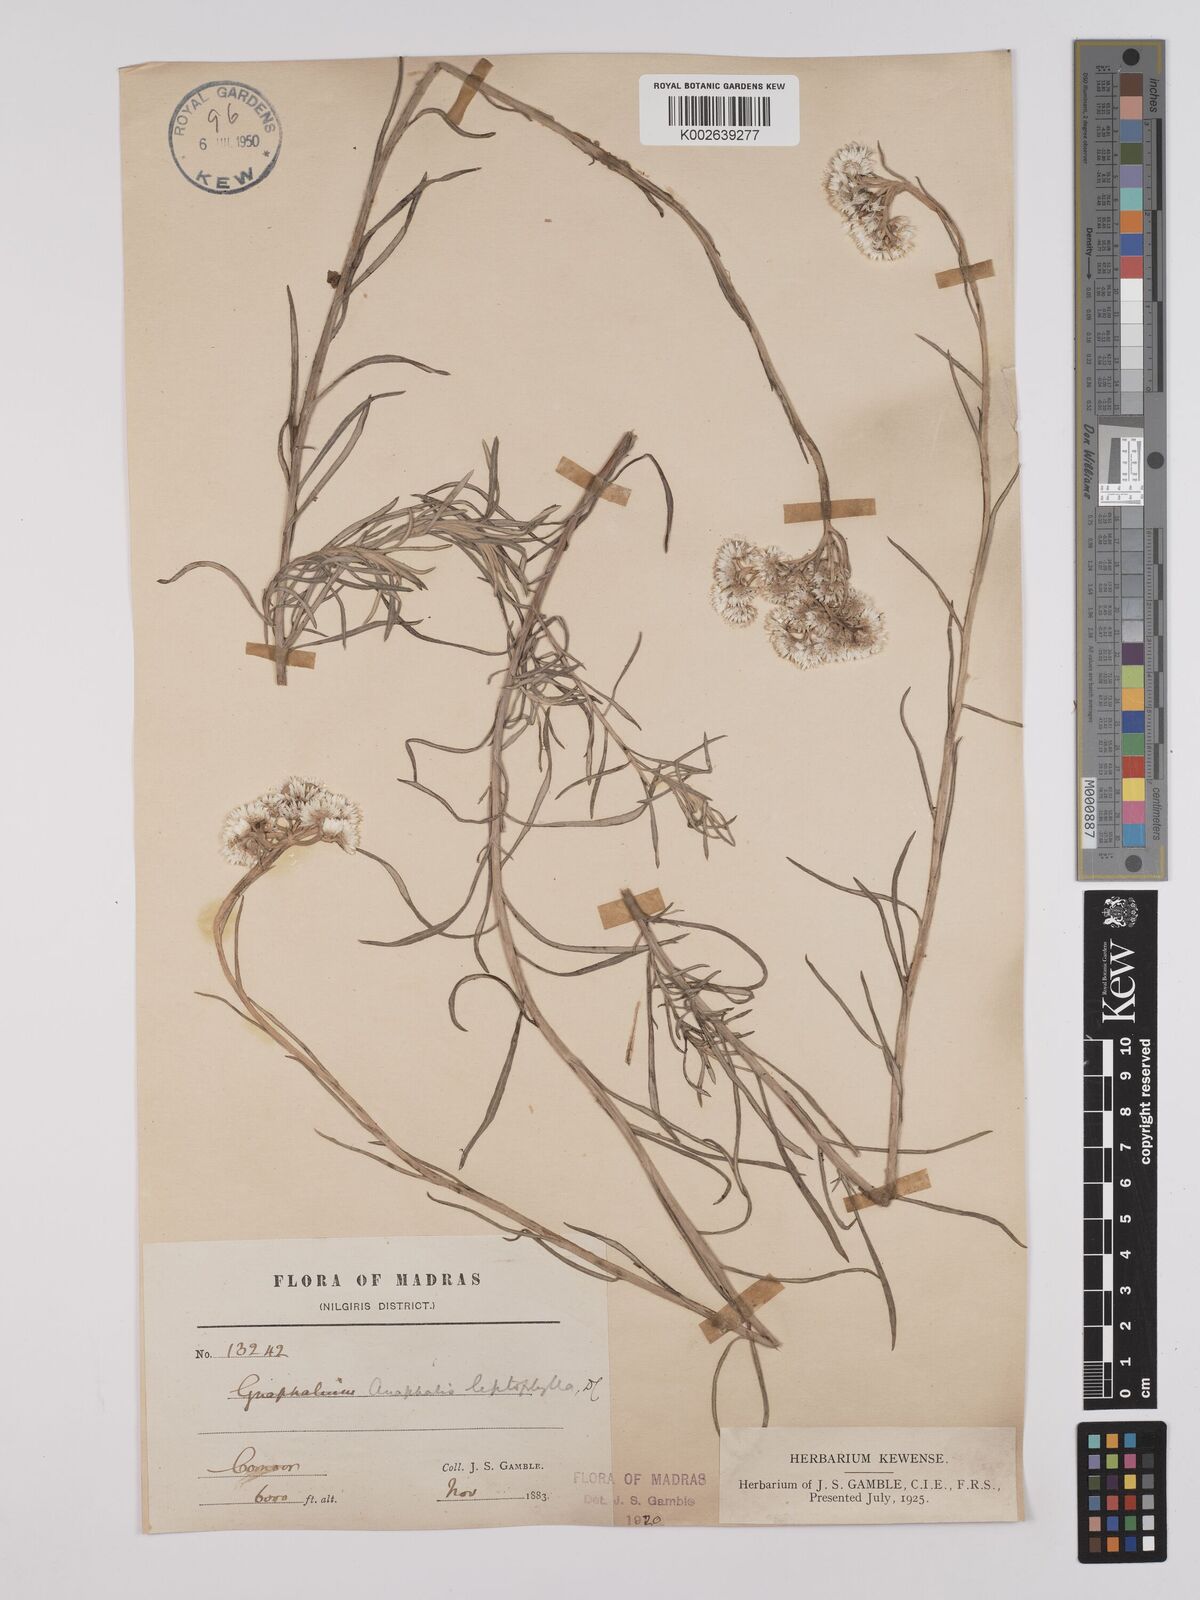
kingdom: Plantae
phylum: Tracheophyta
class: Magnoliopsida
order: Asterales
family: Asteraceae
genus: Anaphalis
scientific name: Anaphalis leptophylla
